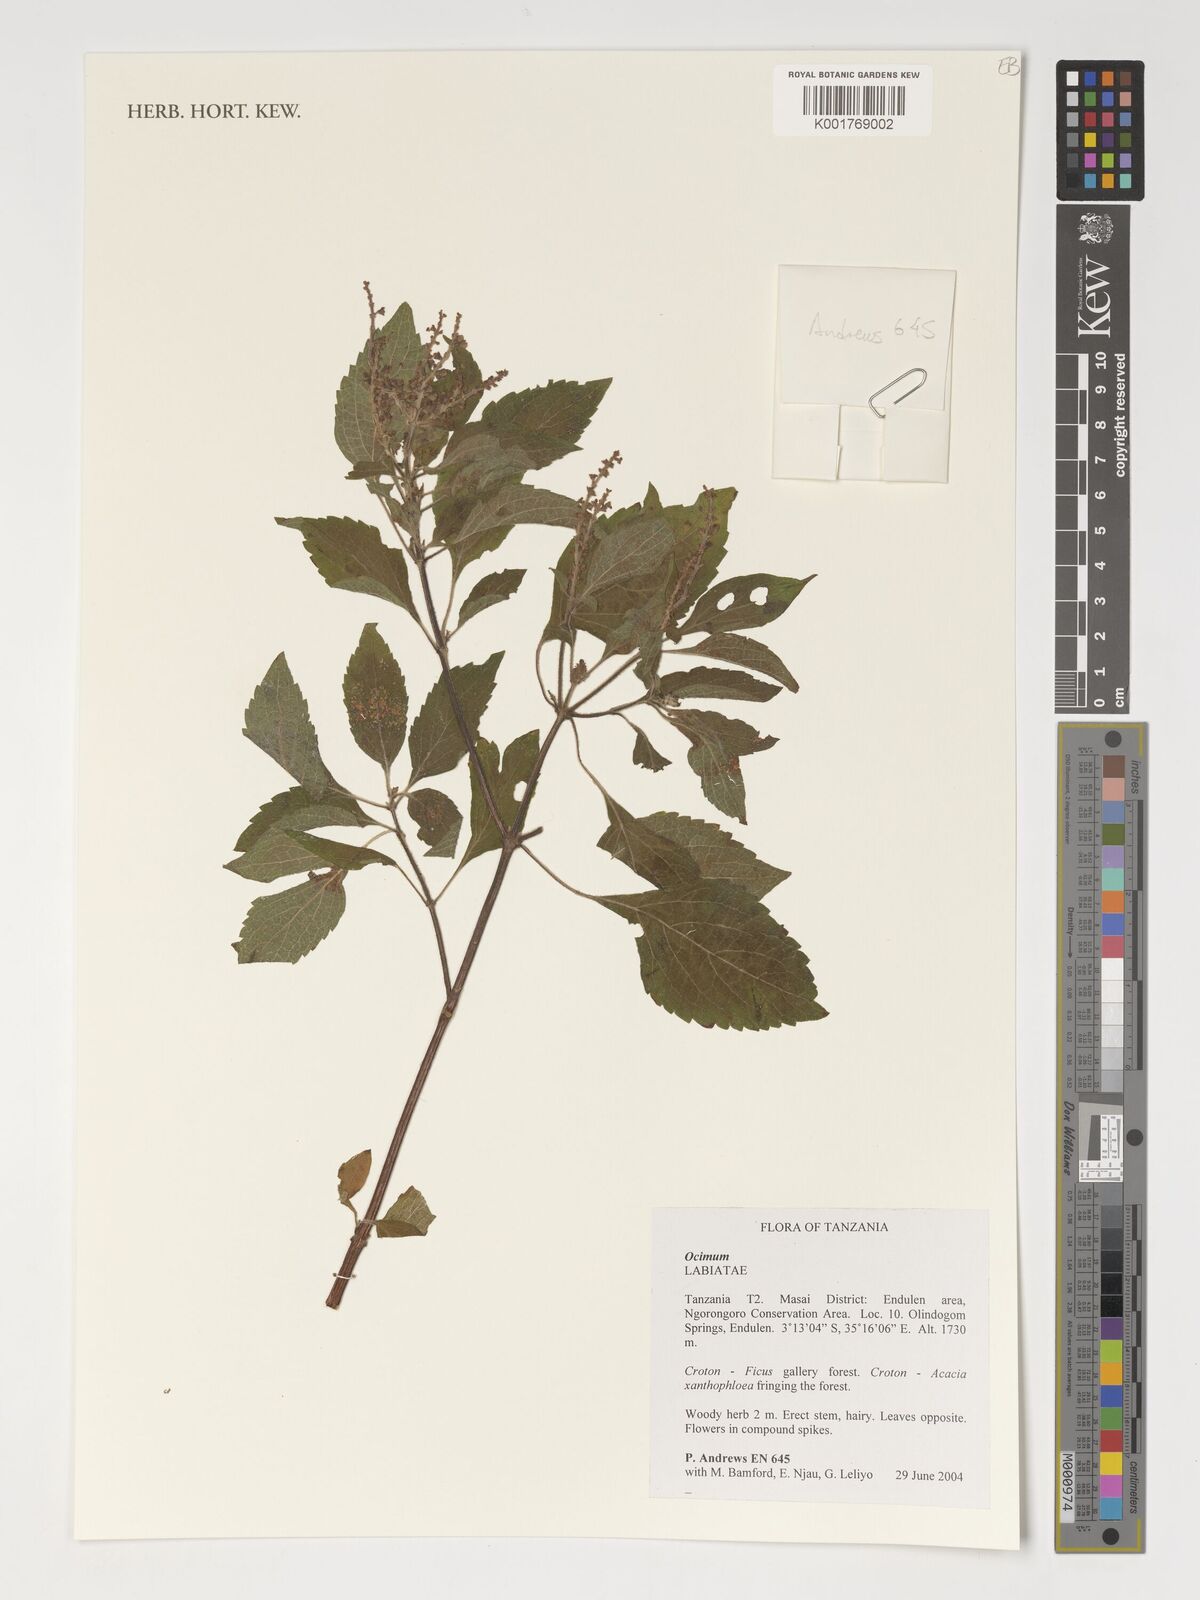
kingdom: Plantae
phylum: Tracheophyta
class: Magnoliopsida
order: Lamiales
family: Lamiaceae
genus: Ocimum
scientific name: Ocimum
